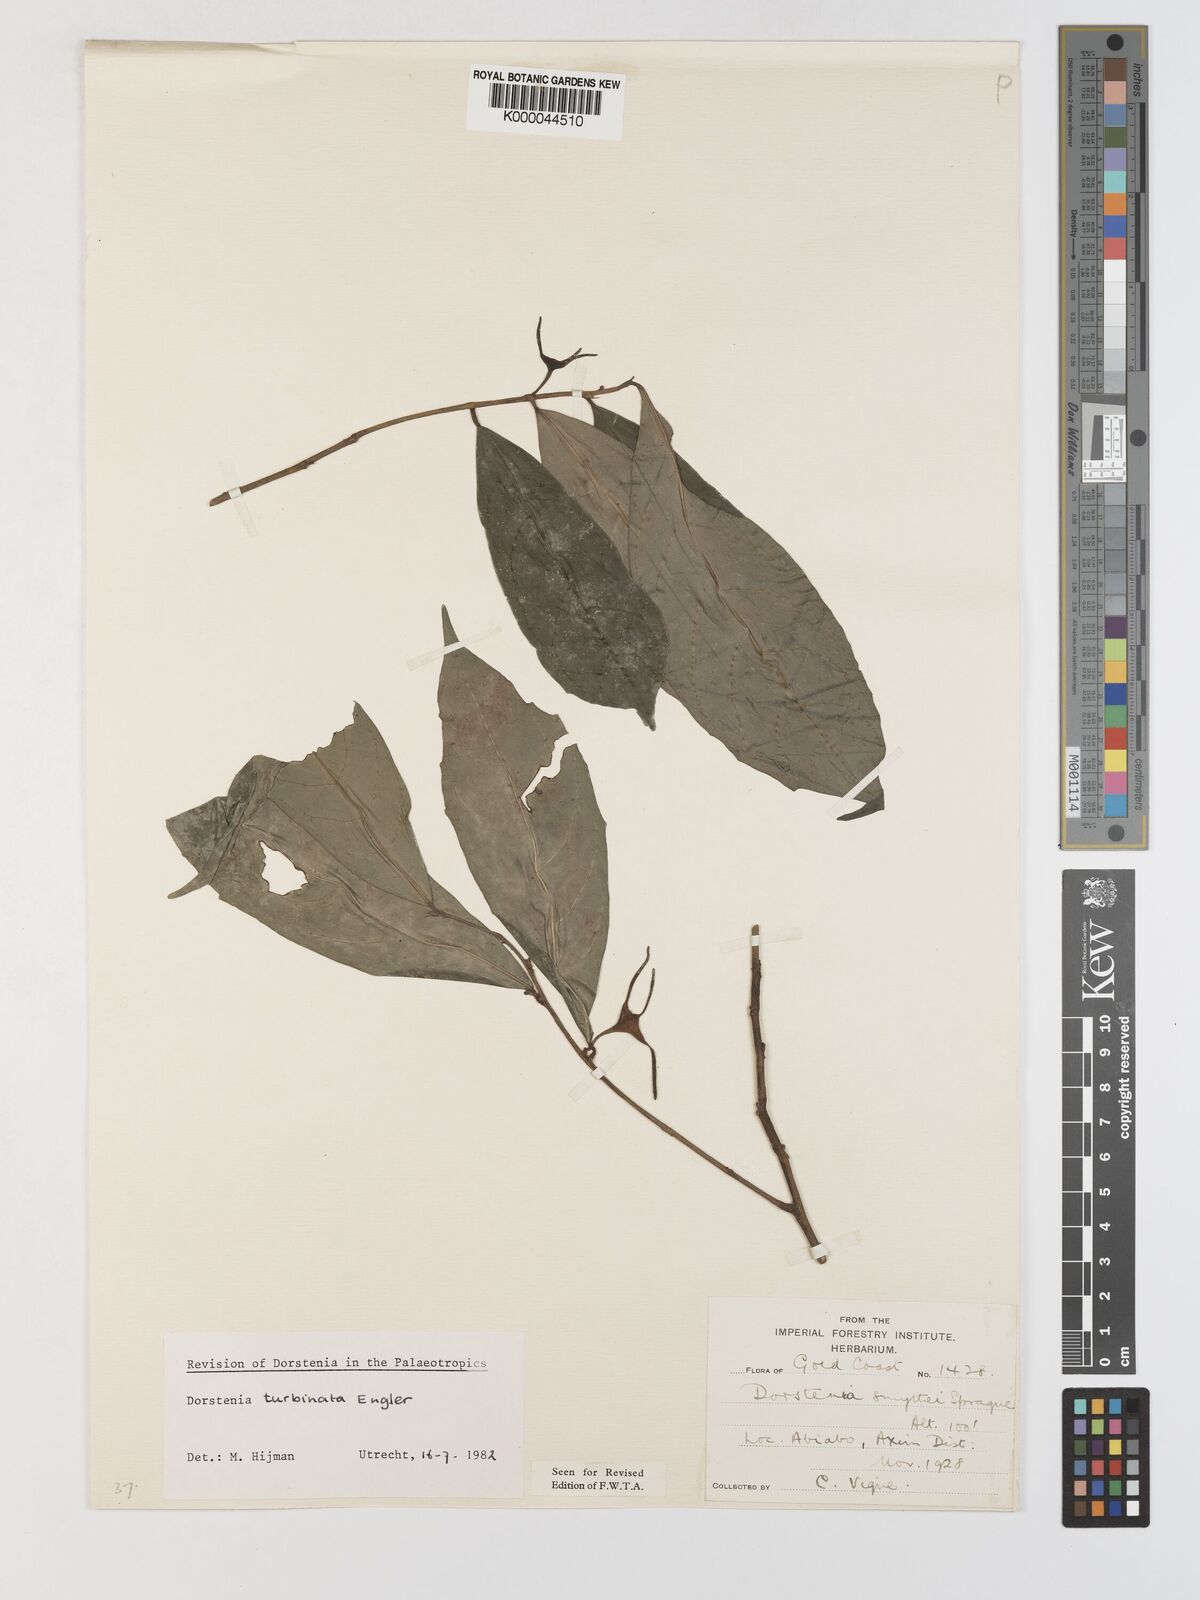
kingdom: Plantae
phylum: Tracheophyta
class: Magnoliopsida
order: Rosales
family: Moraceae
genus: Hijmania
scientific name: Hijmania turbinata
